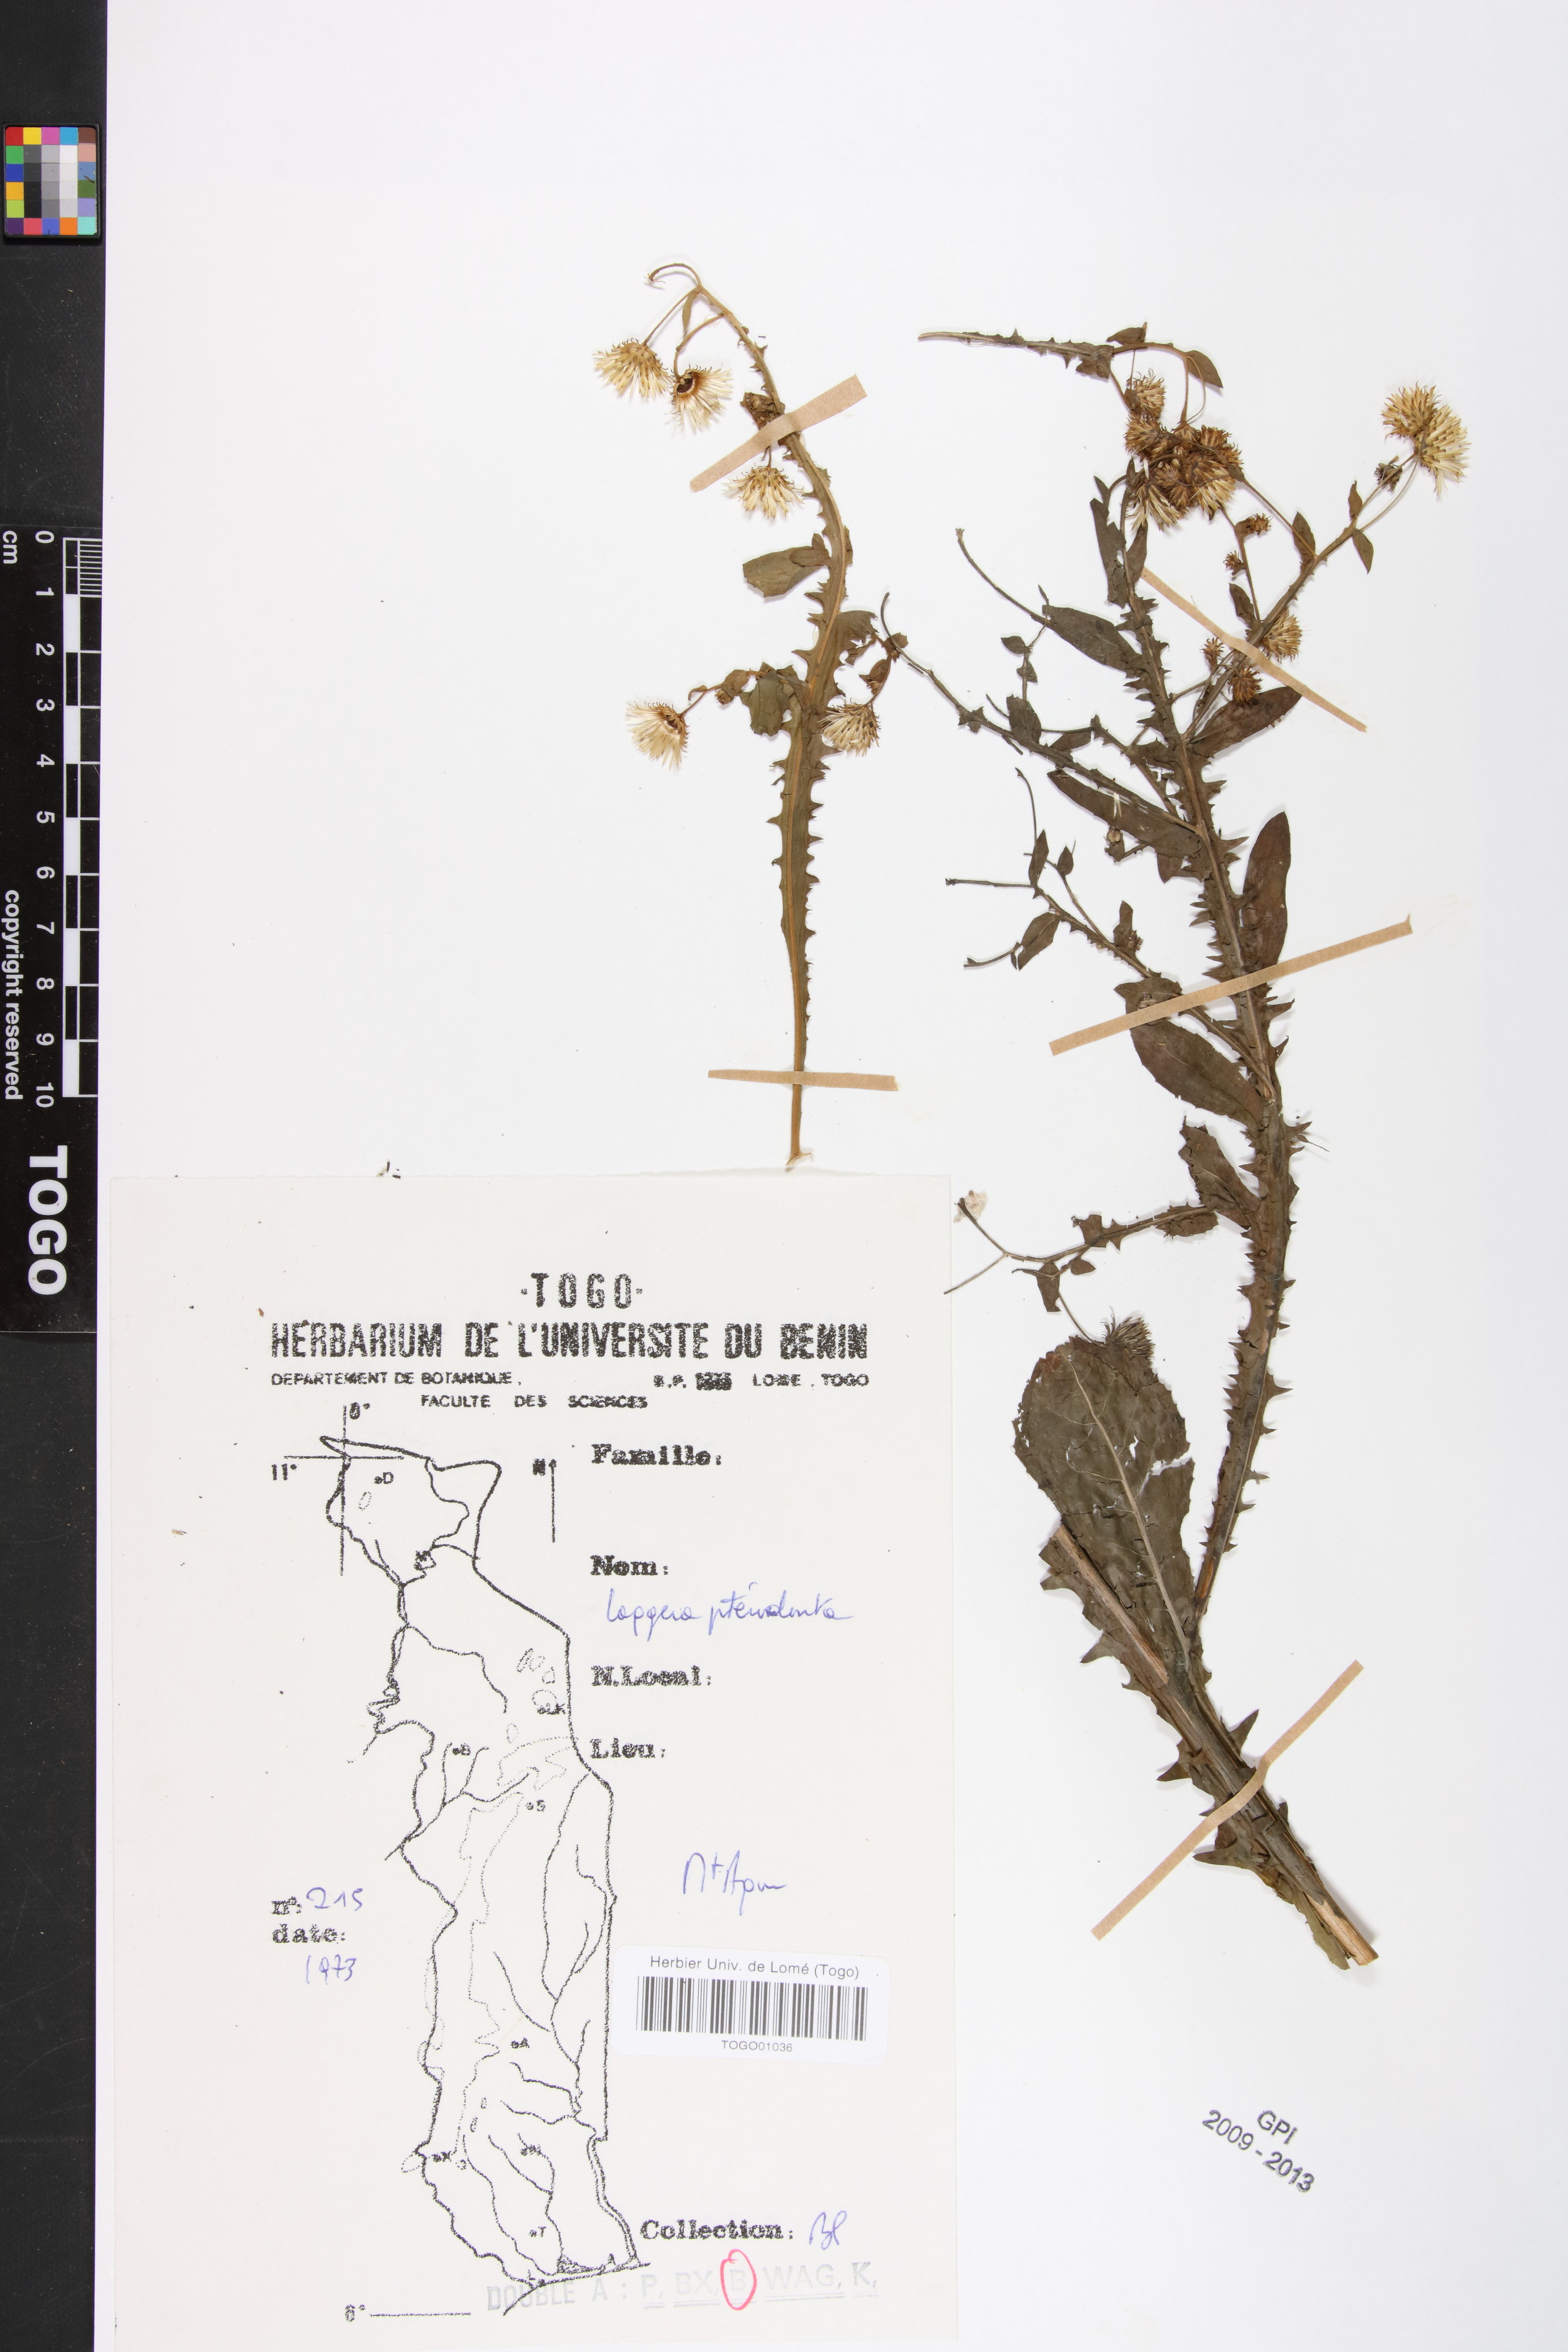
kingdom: Plantae
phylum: Tracheophyta
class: Magnoliopsida
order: Asterales
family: Asteraceae
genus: Laggera
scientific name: Laggera crispata
